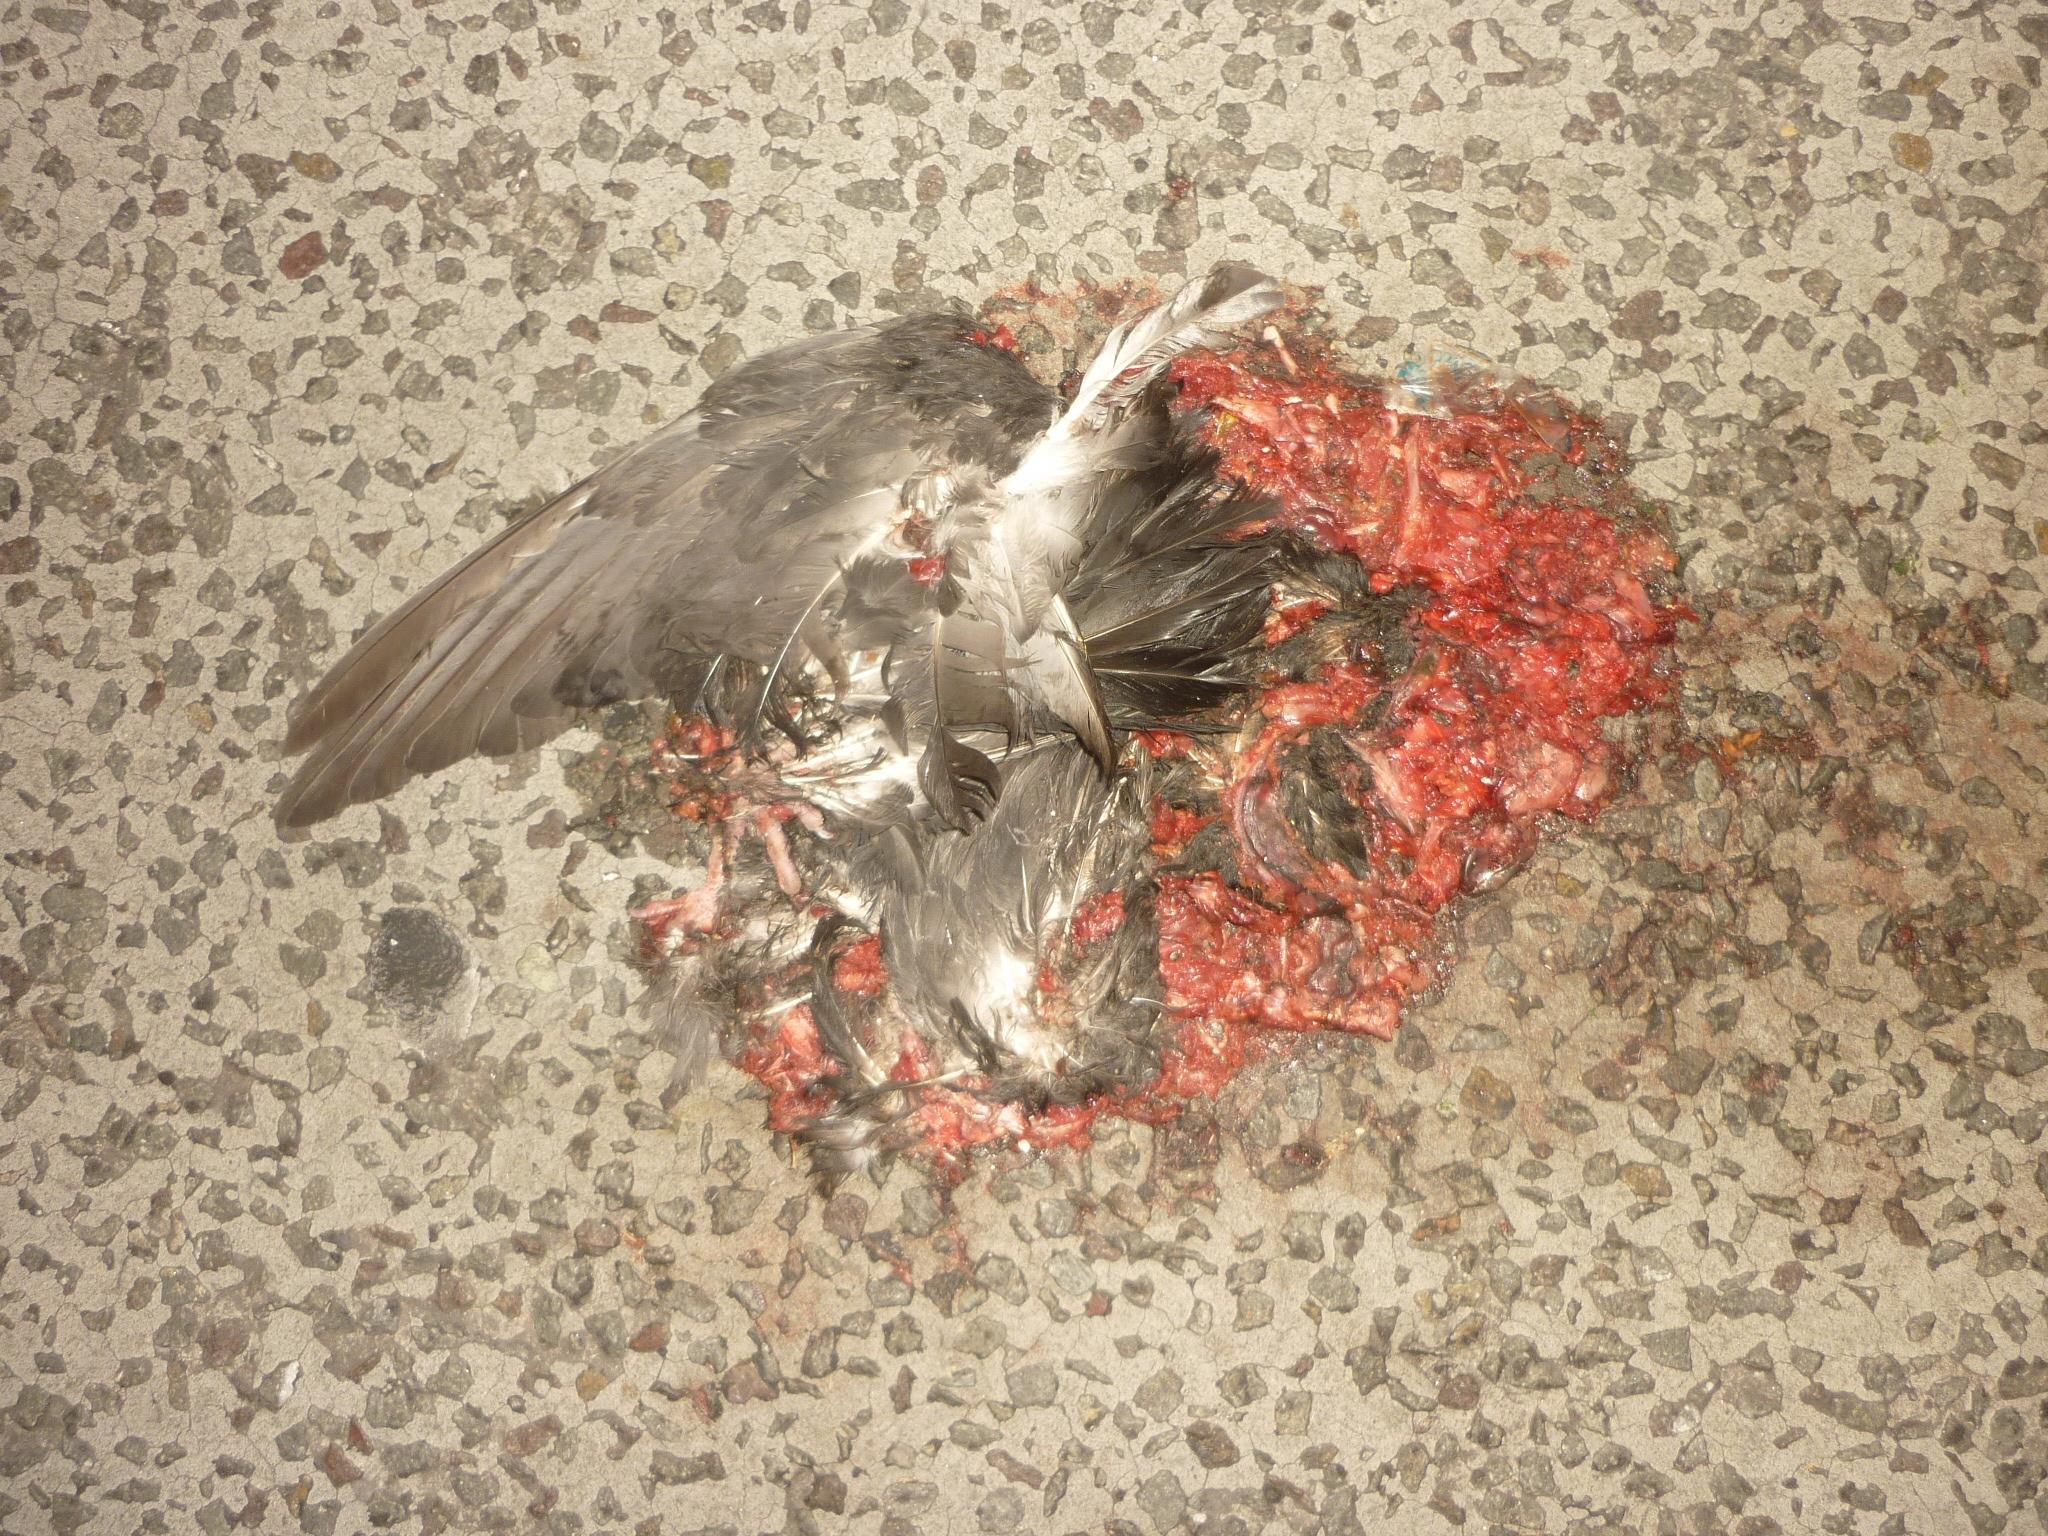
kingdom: Animalia
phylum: Chordata
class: Aves
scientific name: Aves
